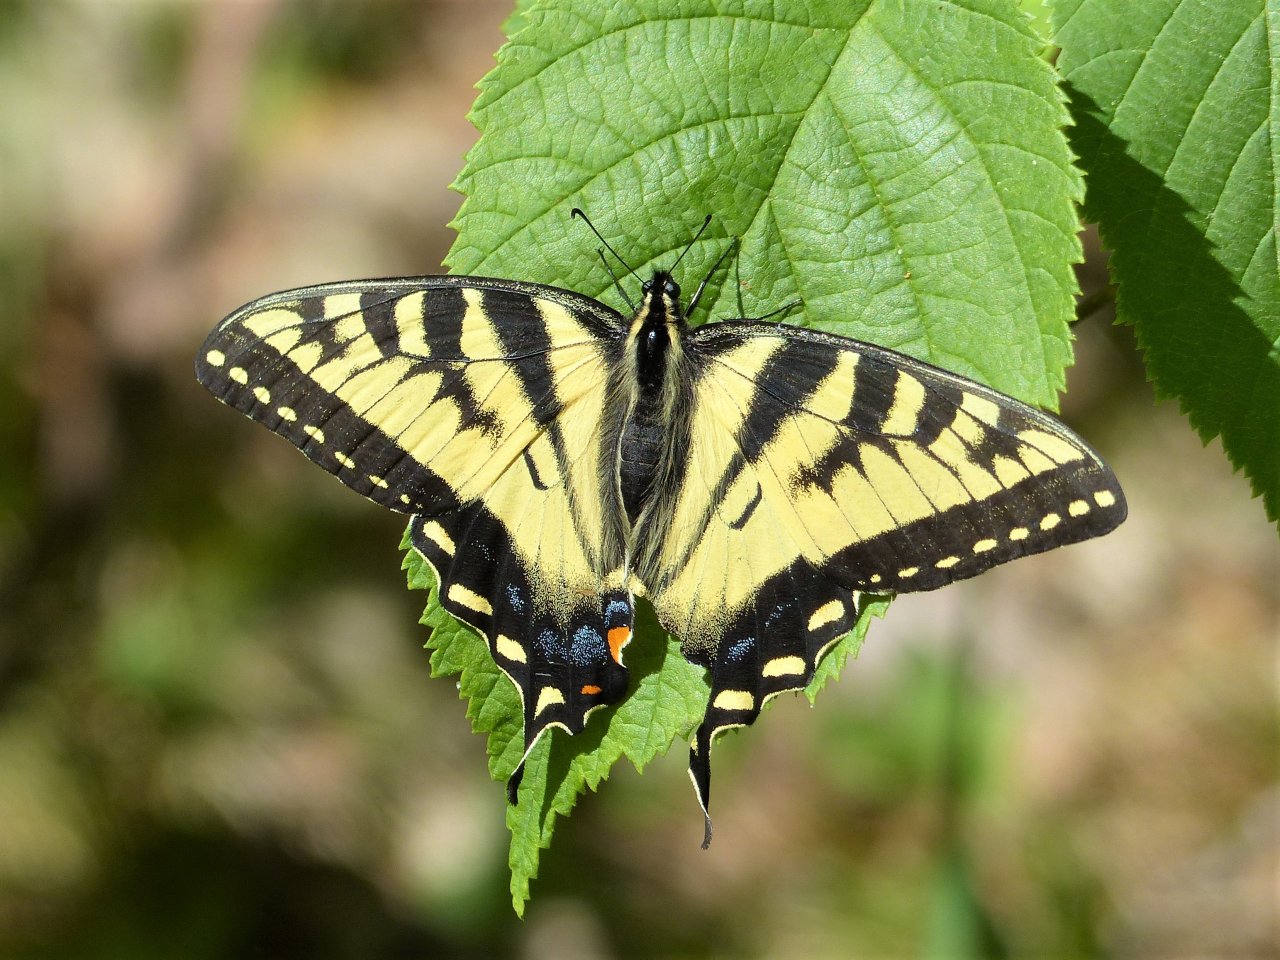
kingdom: Animalia
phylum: Arthropoda
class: Insecta
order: Lepidoptera
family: Papilionidae
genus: Pterourus
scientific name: Pterourus canadensis
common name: Canadian Tiger Swallowtail
